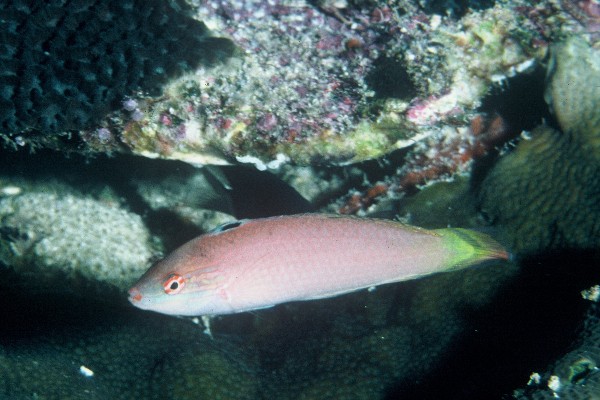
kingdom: Animalia
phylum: Chordata
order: Perciformes
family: Labridae
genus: Halichoeres
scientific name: Halichoeres pallidus
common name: Pale wrasse
